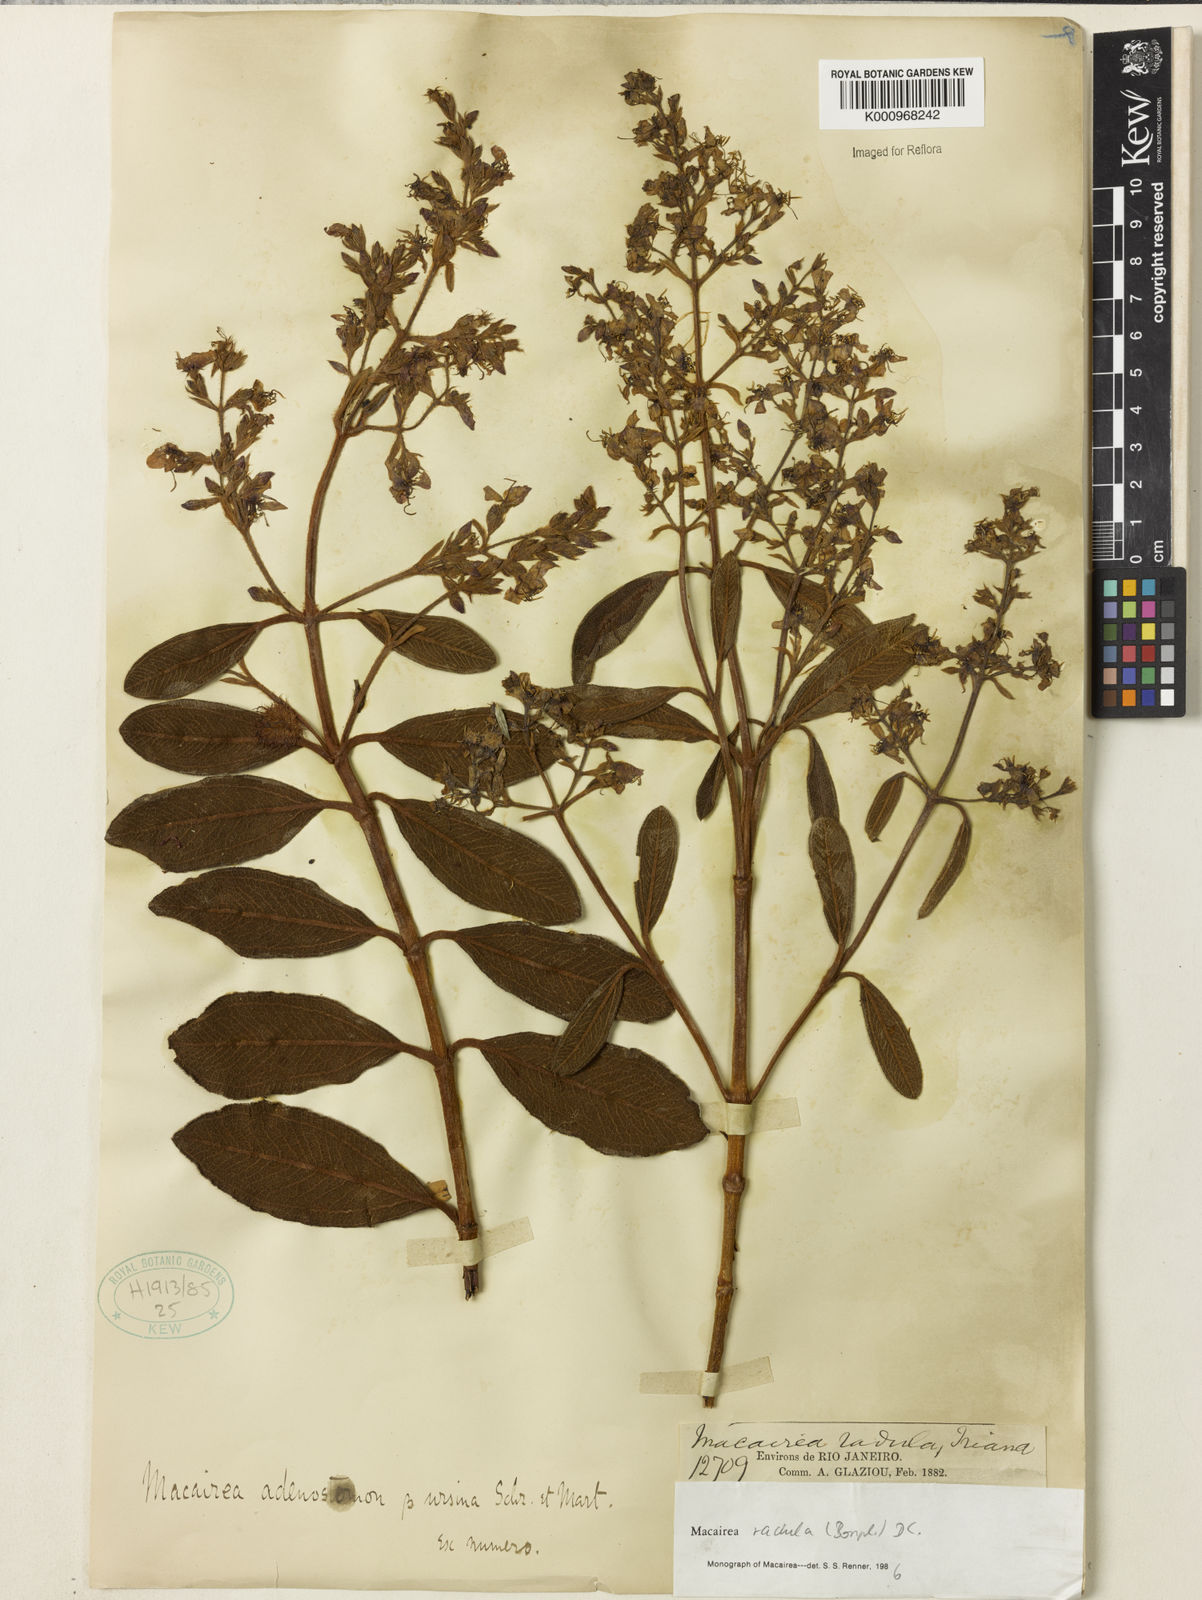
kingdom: Plantae
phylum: Tracheophyta
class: Magnoliopsida
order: Myrtales
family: Melastomataceae
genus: Macairea
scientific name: Macairea radula
